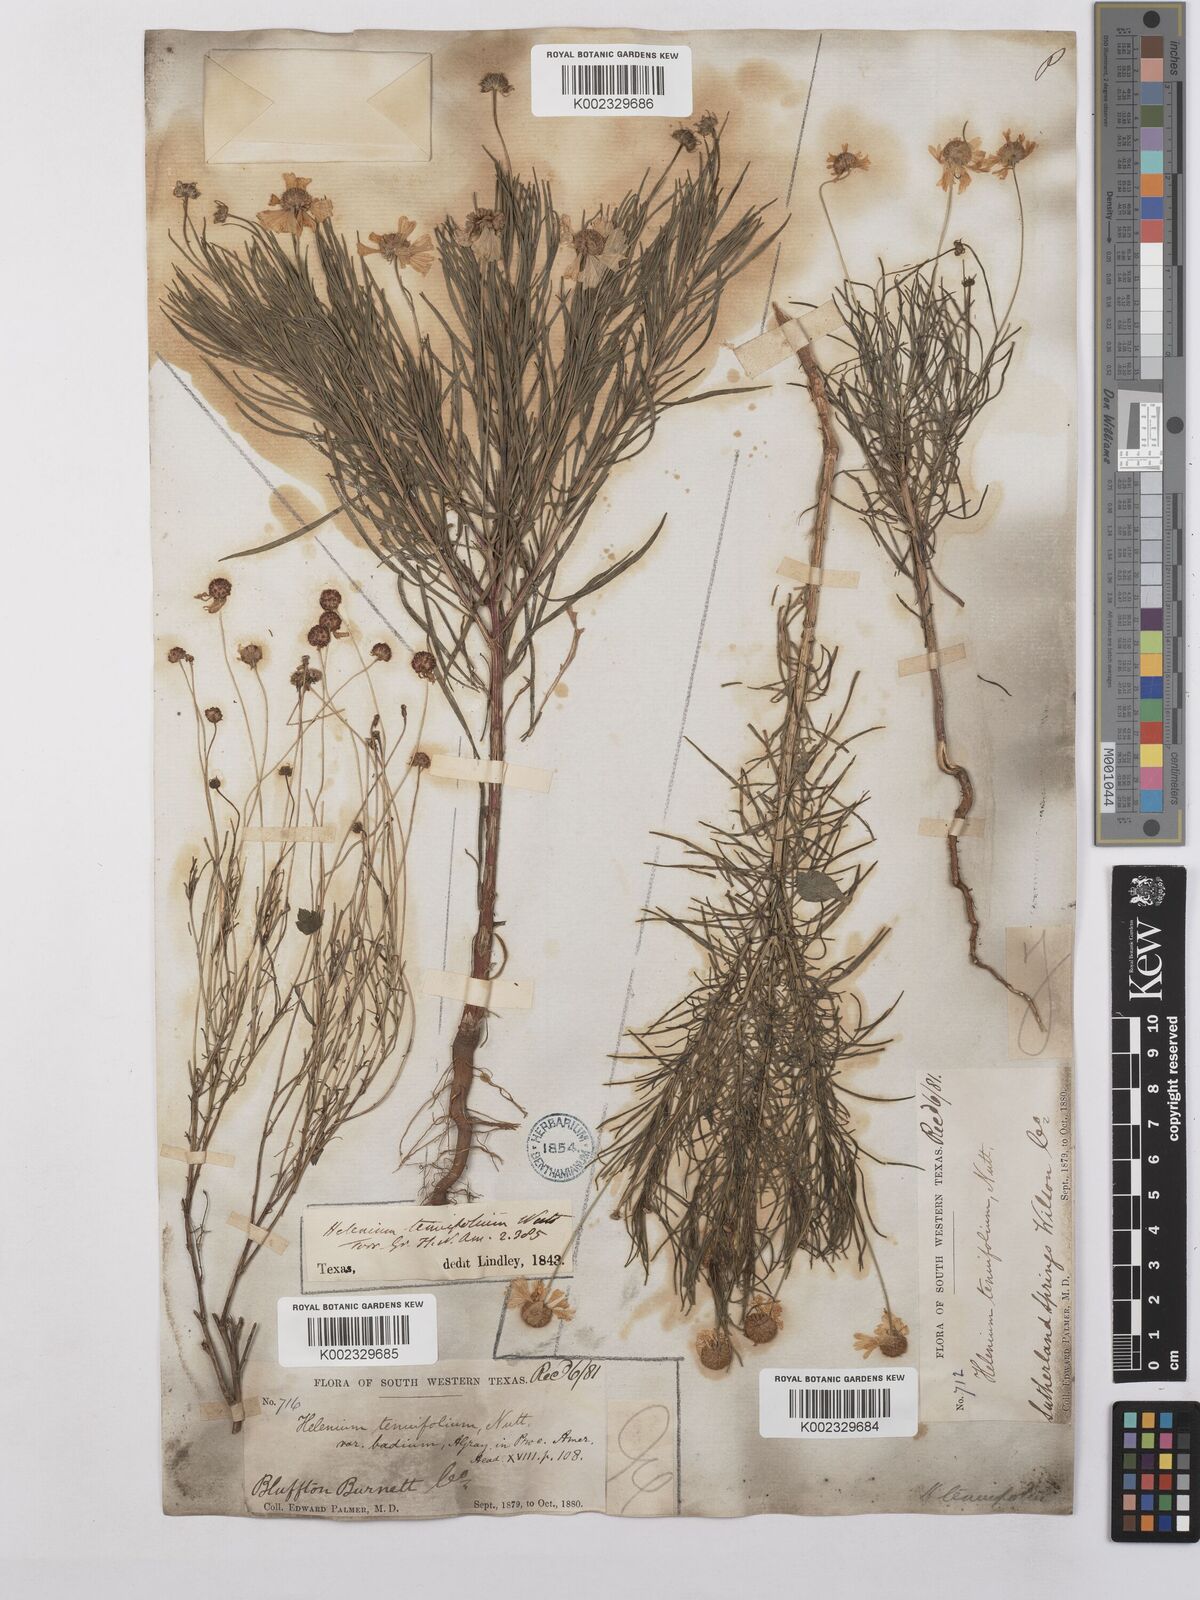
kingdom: Plantae
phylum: Tracheophyta
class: Magnoliopsida
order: Asterales
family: Asteraceae
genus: Helenium
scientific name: Helenium amarum
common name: Bitter sneezeweed
